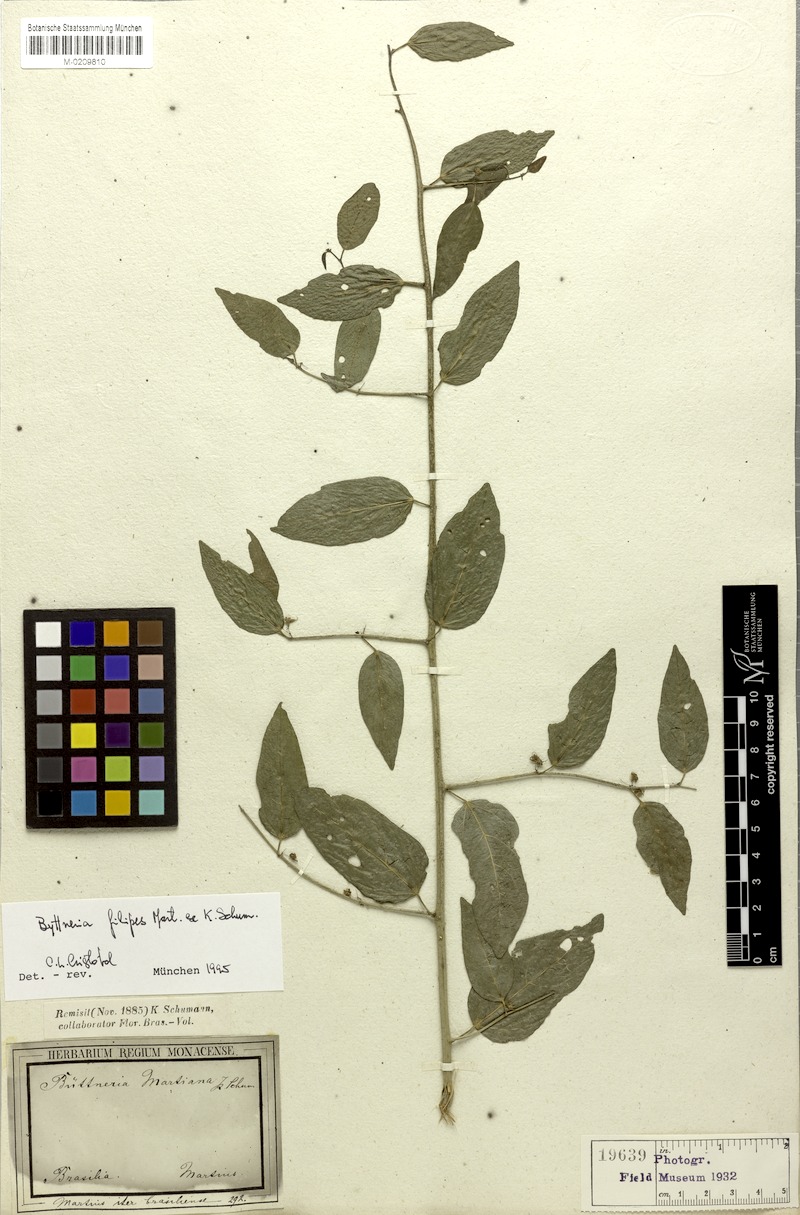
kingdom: Plantae
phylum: Tracheophyta
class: Magnoliopsida
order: Malvales
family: Malvaceae
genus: Byttneria
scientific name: Byttneria filipes
